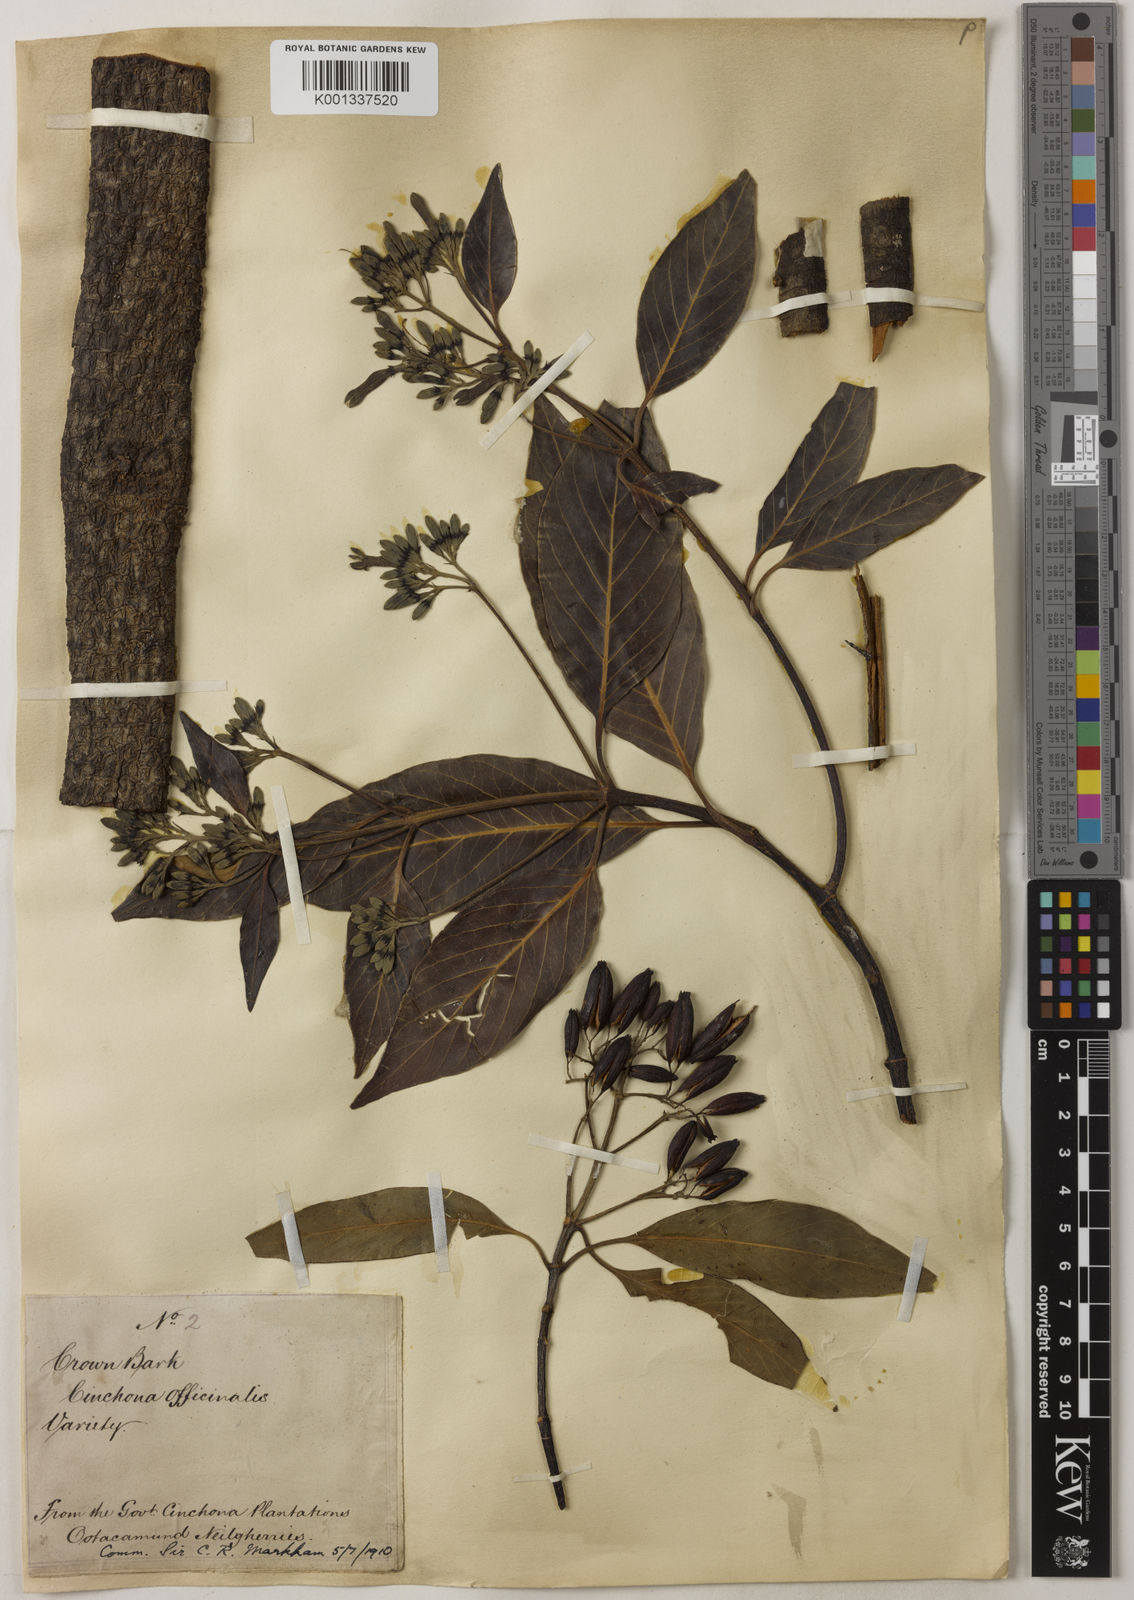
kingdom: Plantae
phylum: Tracheophyta
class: Magnoliopsida
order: Gentianales
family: Rubiaceae
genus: Cinchona
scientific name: Cinchona officinalis
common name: Lojabark
